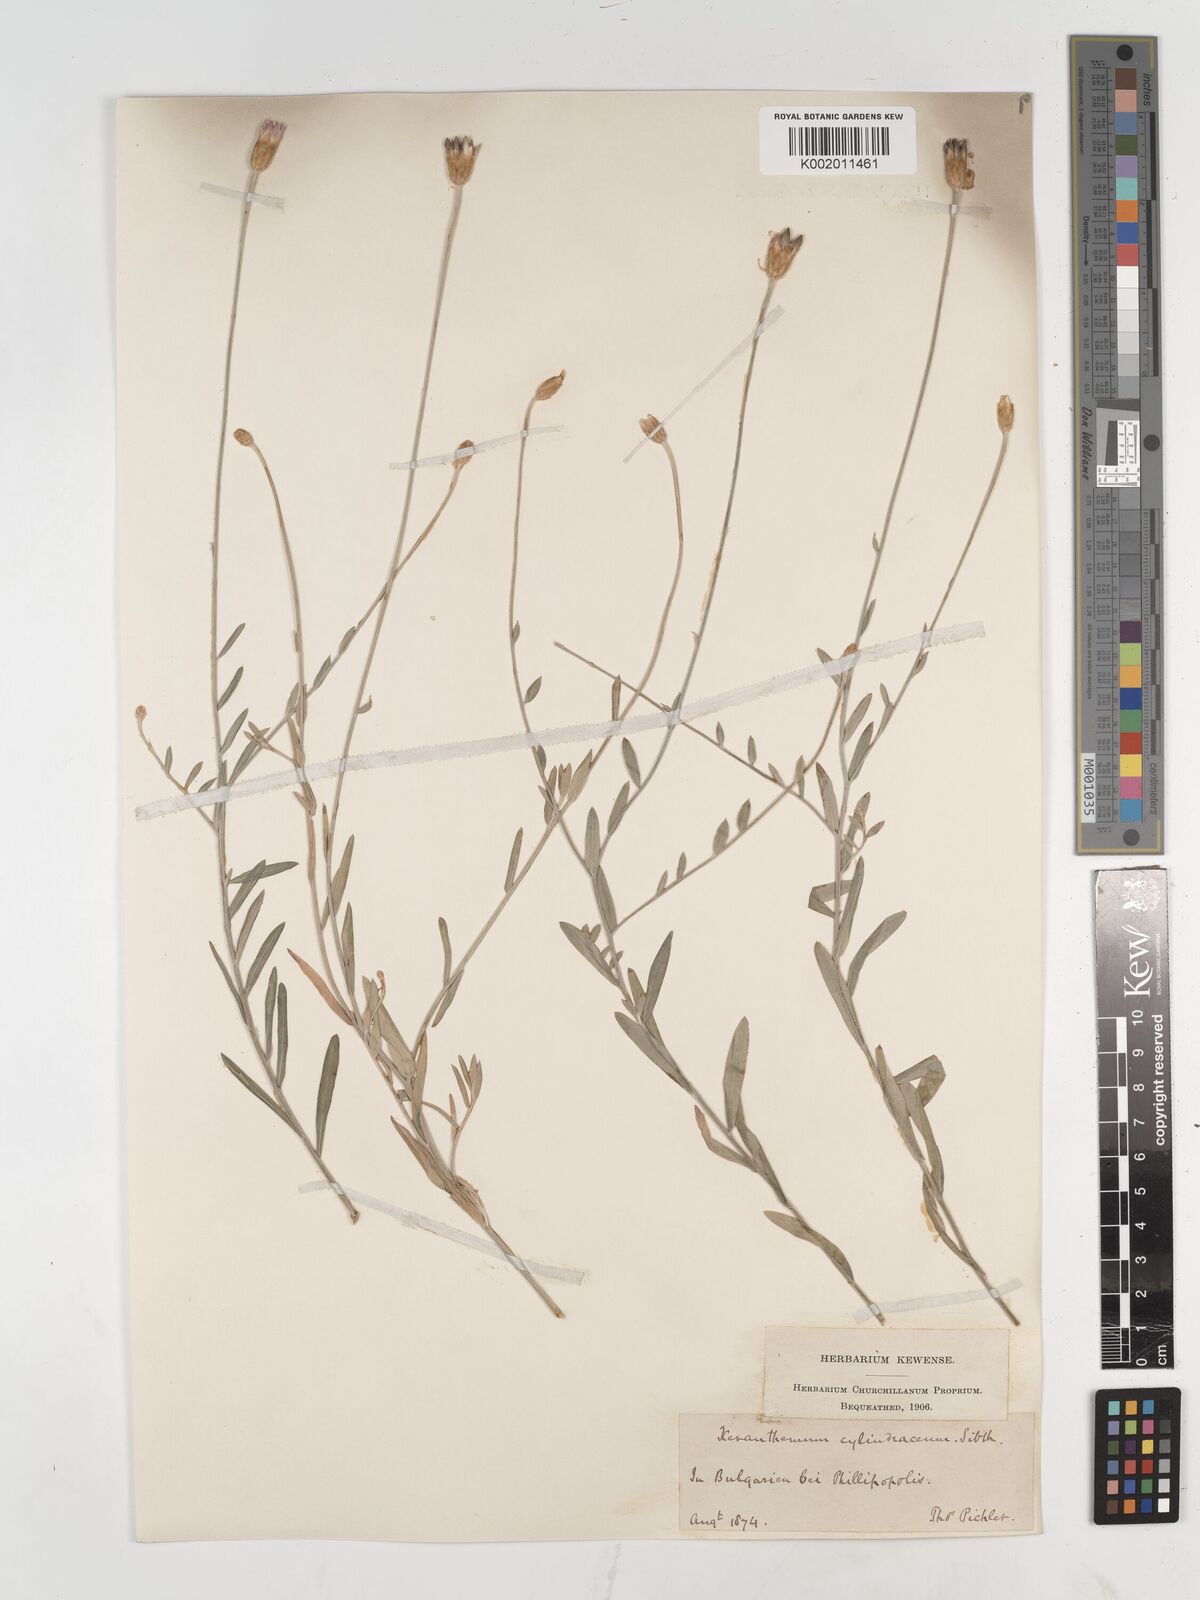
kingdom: Plantae
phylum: Tracheophyta
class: Magnoliopsida
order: Asterales
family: Asteraceae
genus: Xeranthemum
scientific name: Xeranthemum cylindraceum
